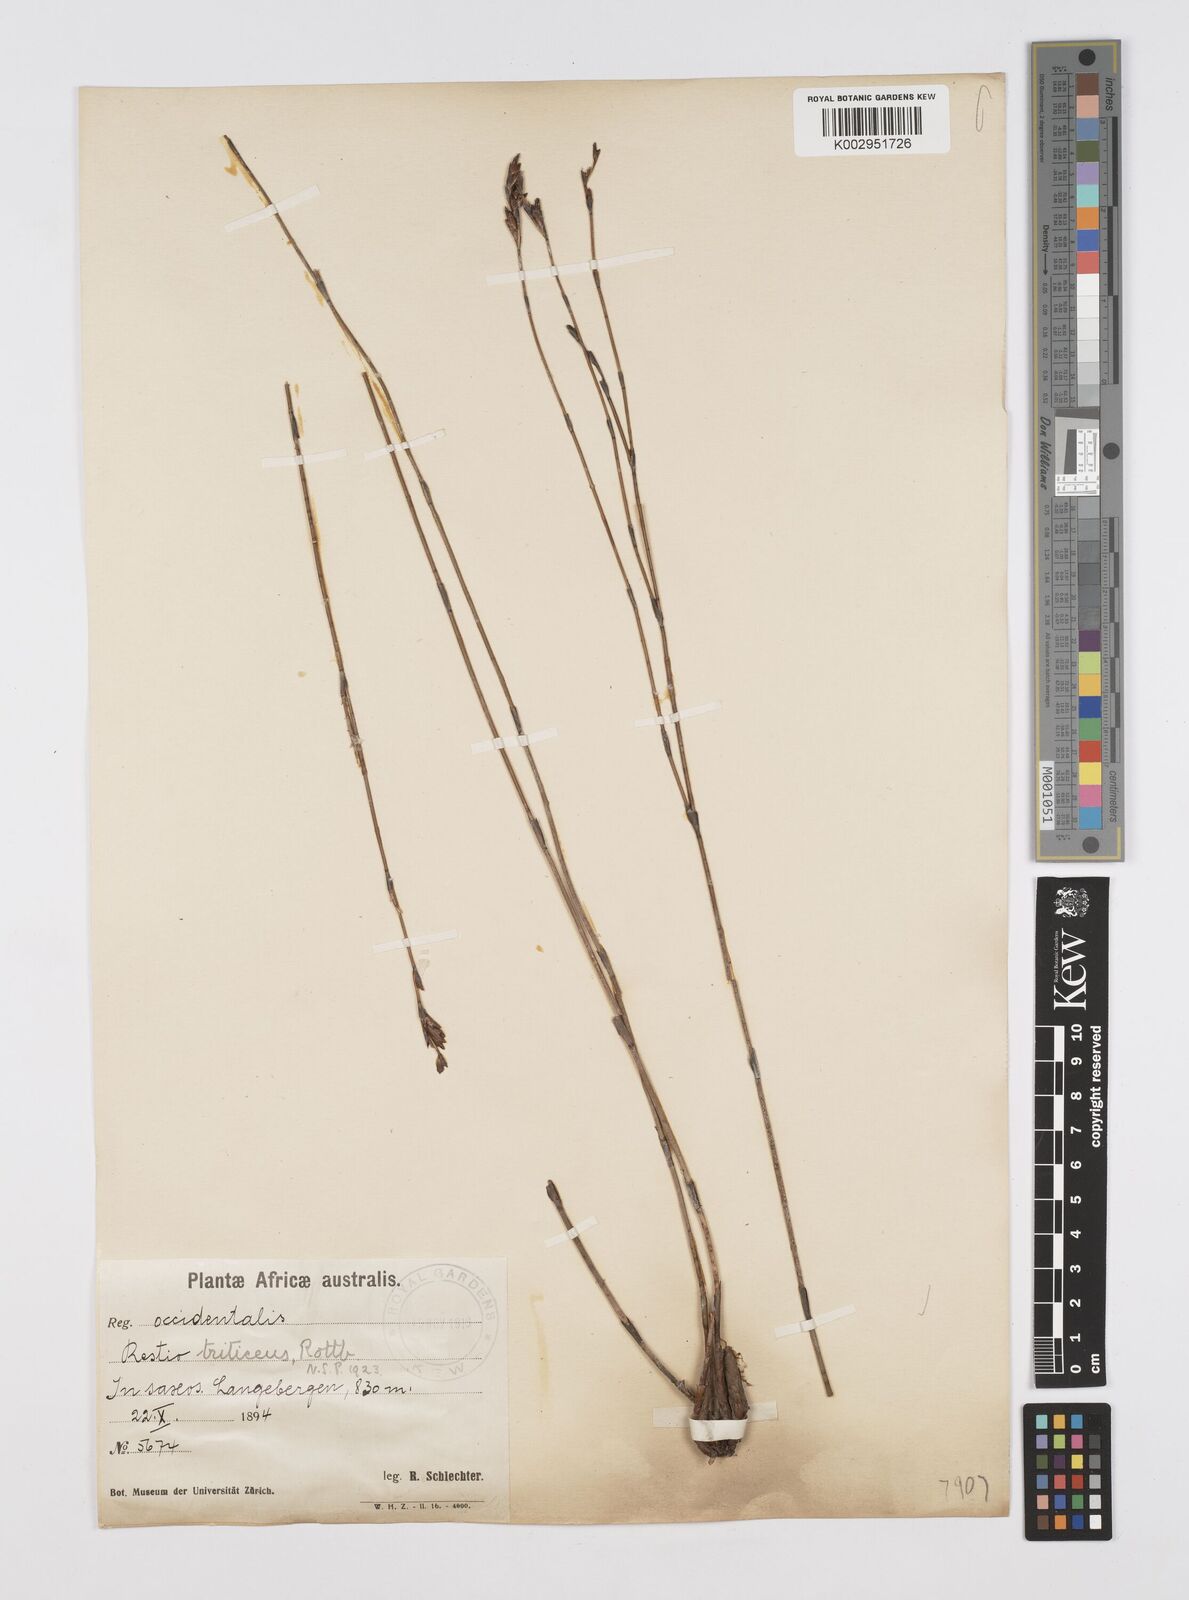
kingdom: Plantae
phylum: Tracheophyta
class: Liliopsida
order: Poales
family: Restionaceae
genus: Restio
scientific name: Restio triticeus
